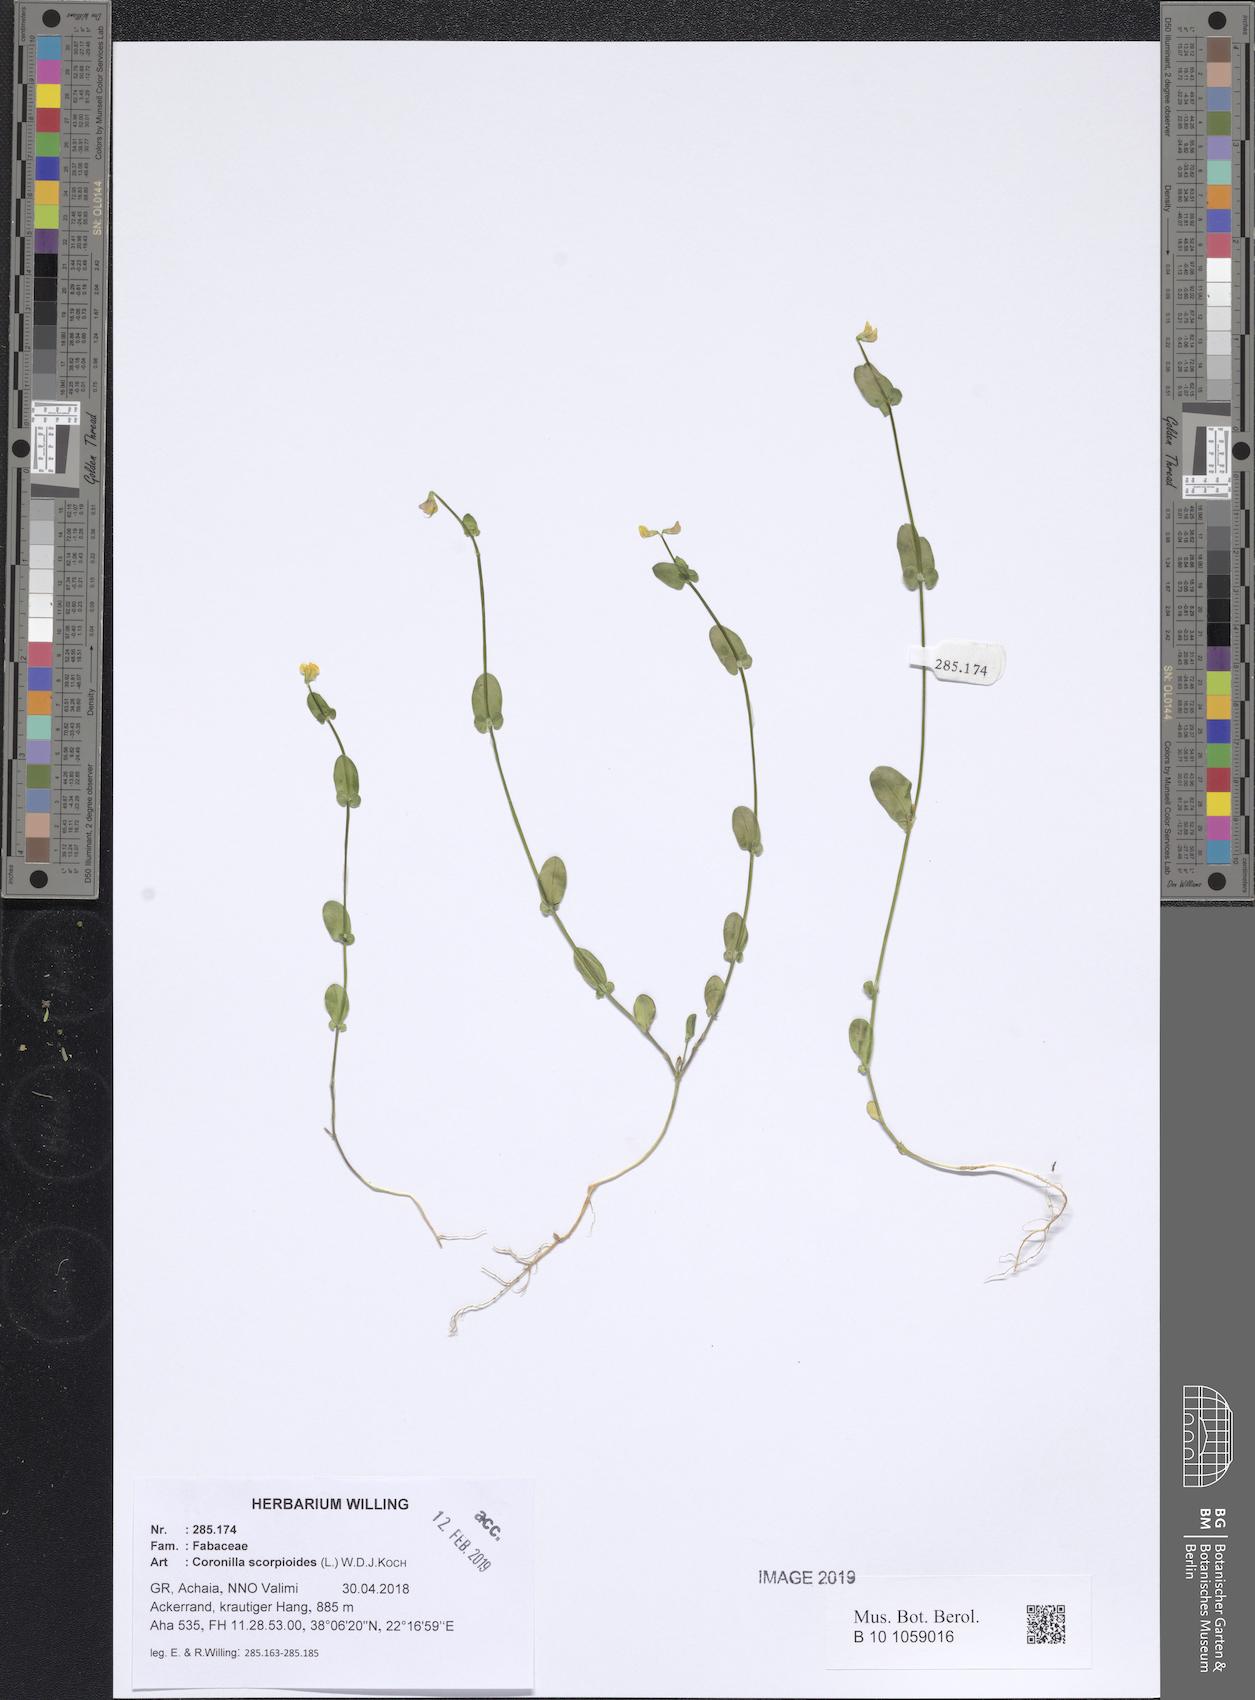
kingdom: Plantae
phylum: Tracheophyta
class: Magnoliopsida
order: Fabales
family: Fabaceae
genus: Coronilla
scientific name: Coronilla scorpioides
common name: Annual scorpion-vetch
